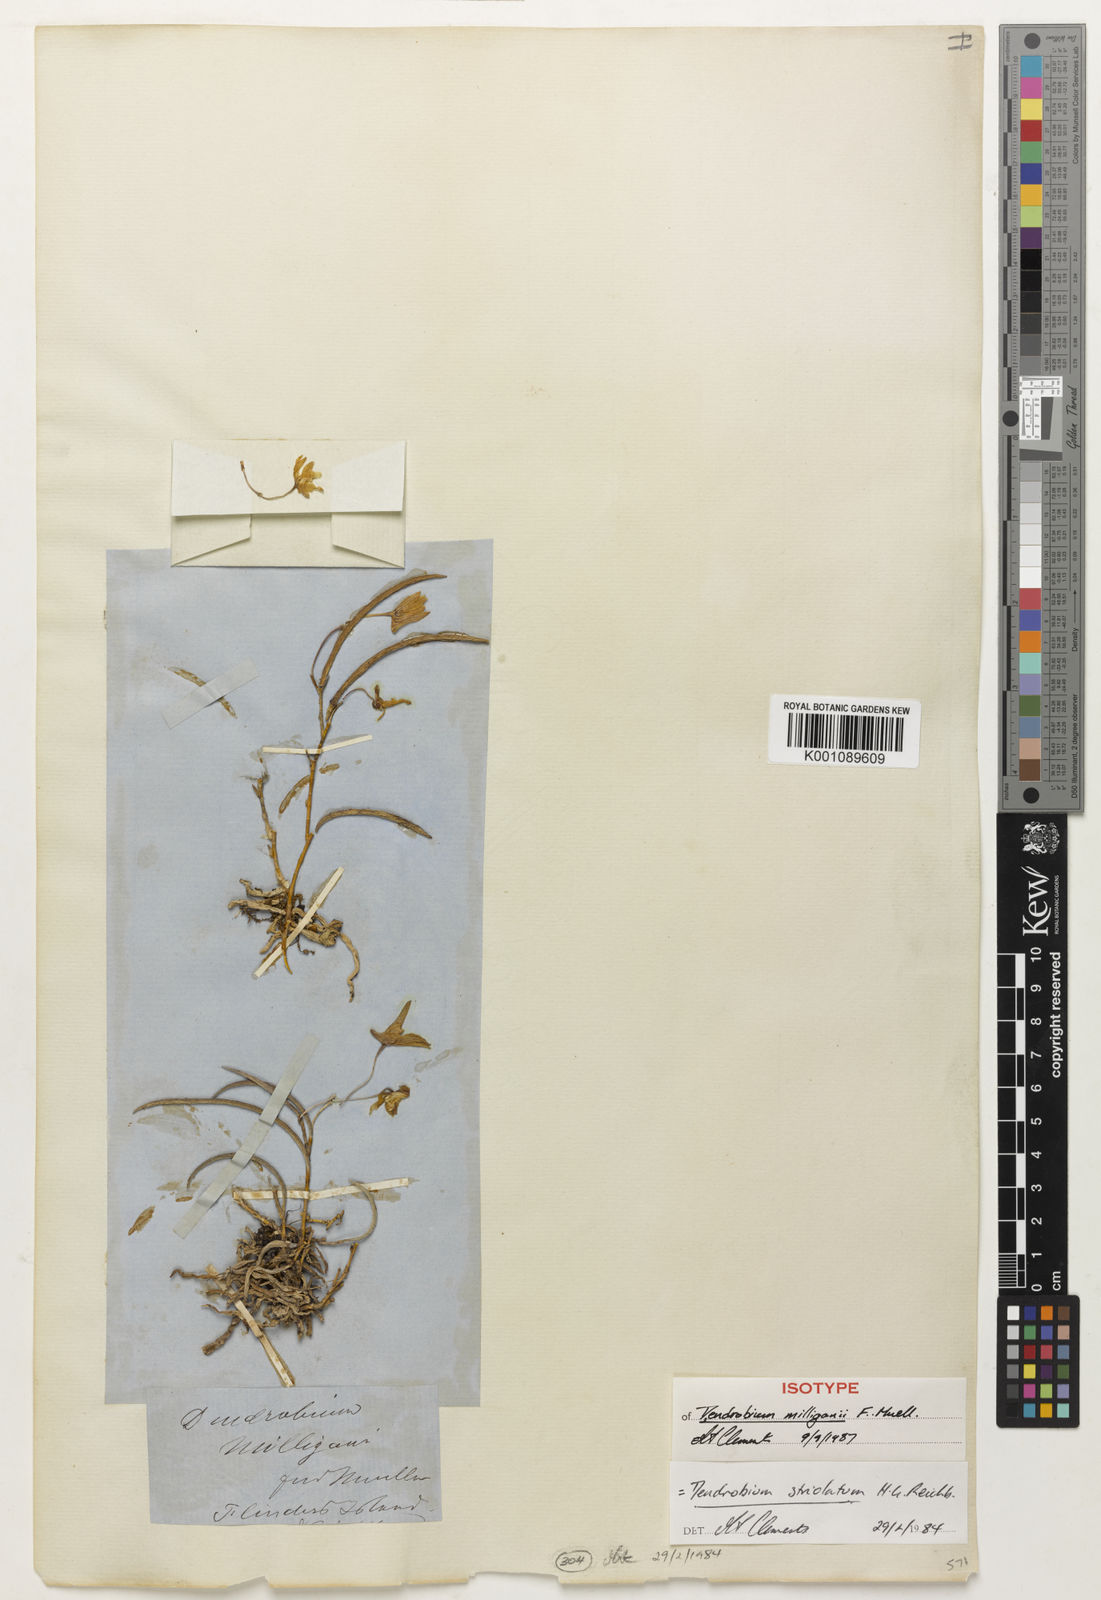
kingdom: Plantae
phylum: Tracheophyta
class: Liliopsida
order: Asparagales
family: Orchidaceae
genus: Dendrobium
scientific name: Dendrobium striolatum
